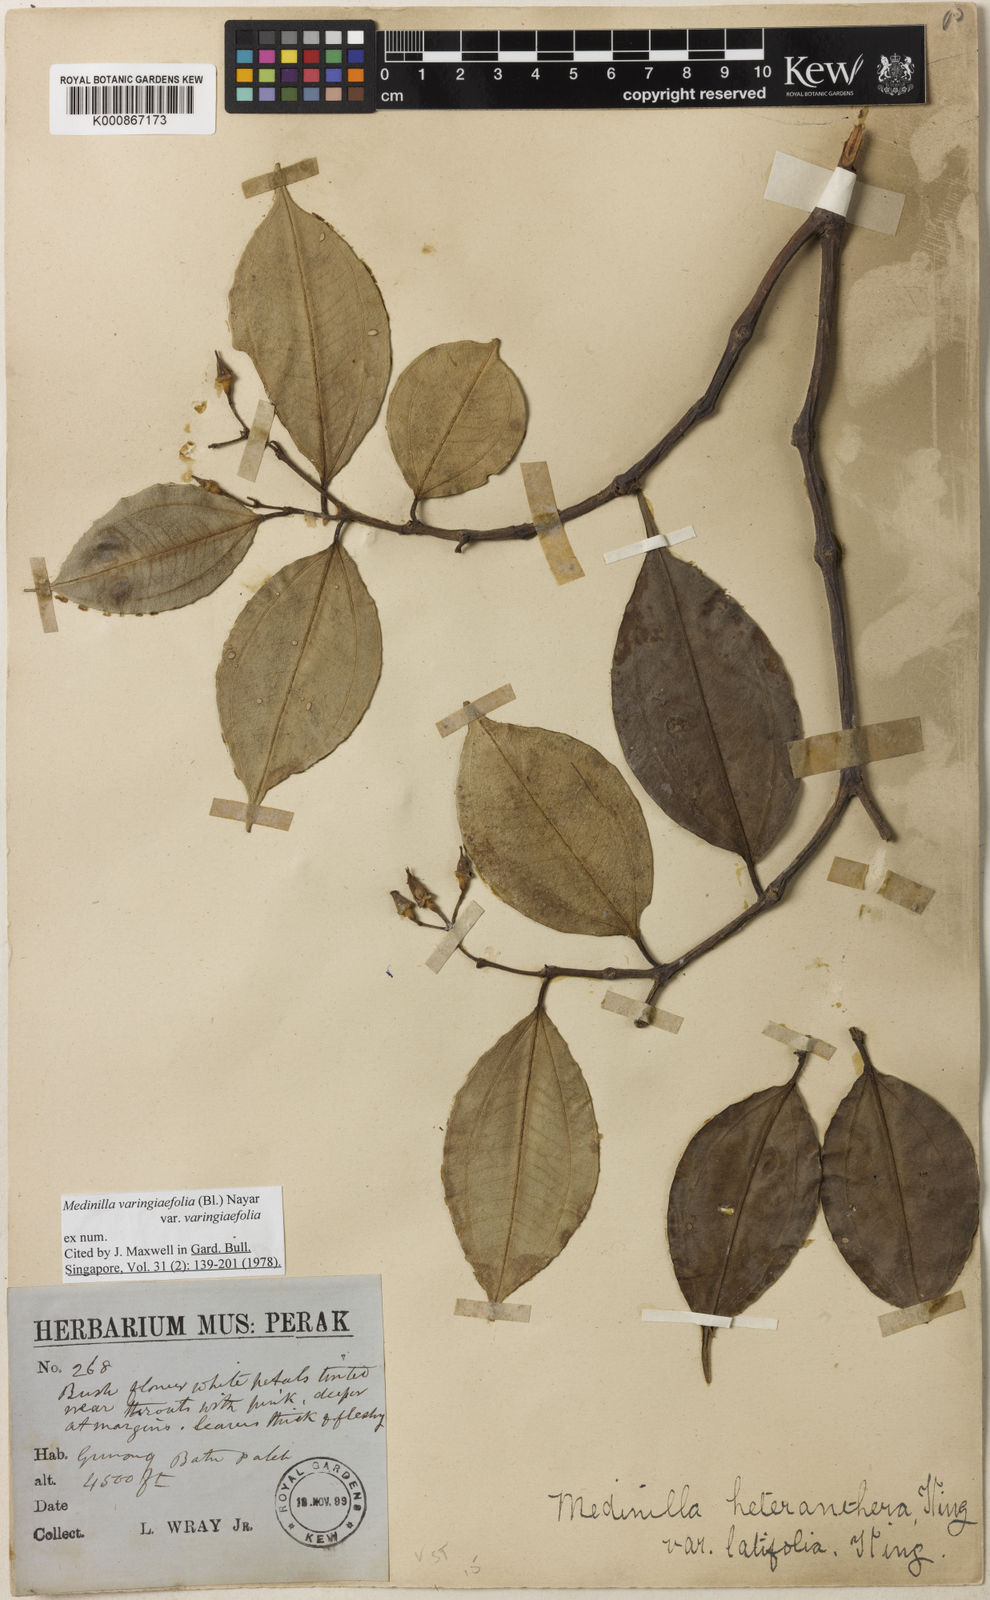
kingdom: Plantae
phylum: Tracheophyta
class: Magnoliopsida
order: Myrtales
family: Melastomataceae
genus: Pachycentria
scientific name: Pachycentria varingiaefolia
